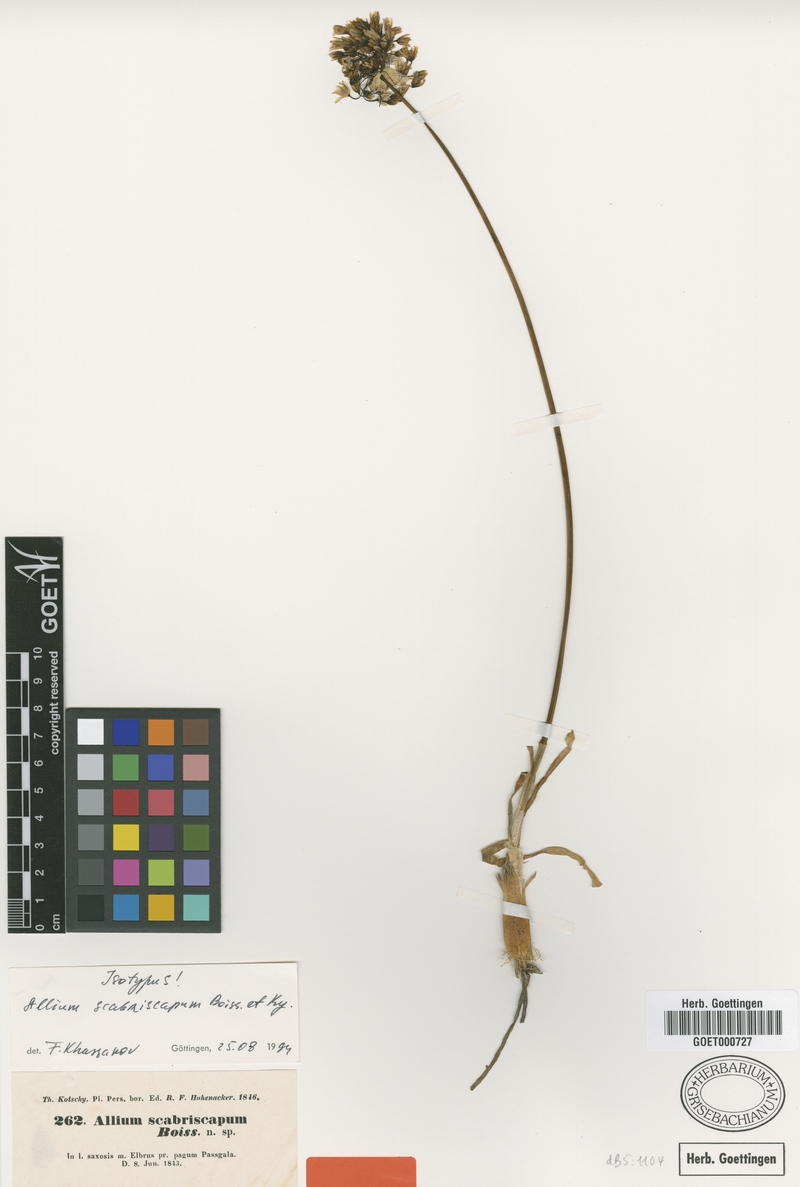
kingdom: Plantae
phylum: Tracheophyta
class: Liliopsida
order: Asparagales
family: Amaryllidaceae
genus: Allium
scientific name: Allium scabriscapum
